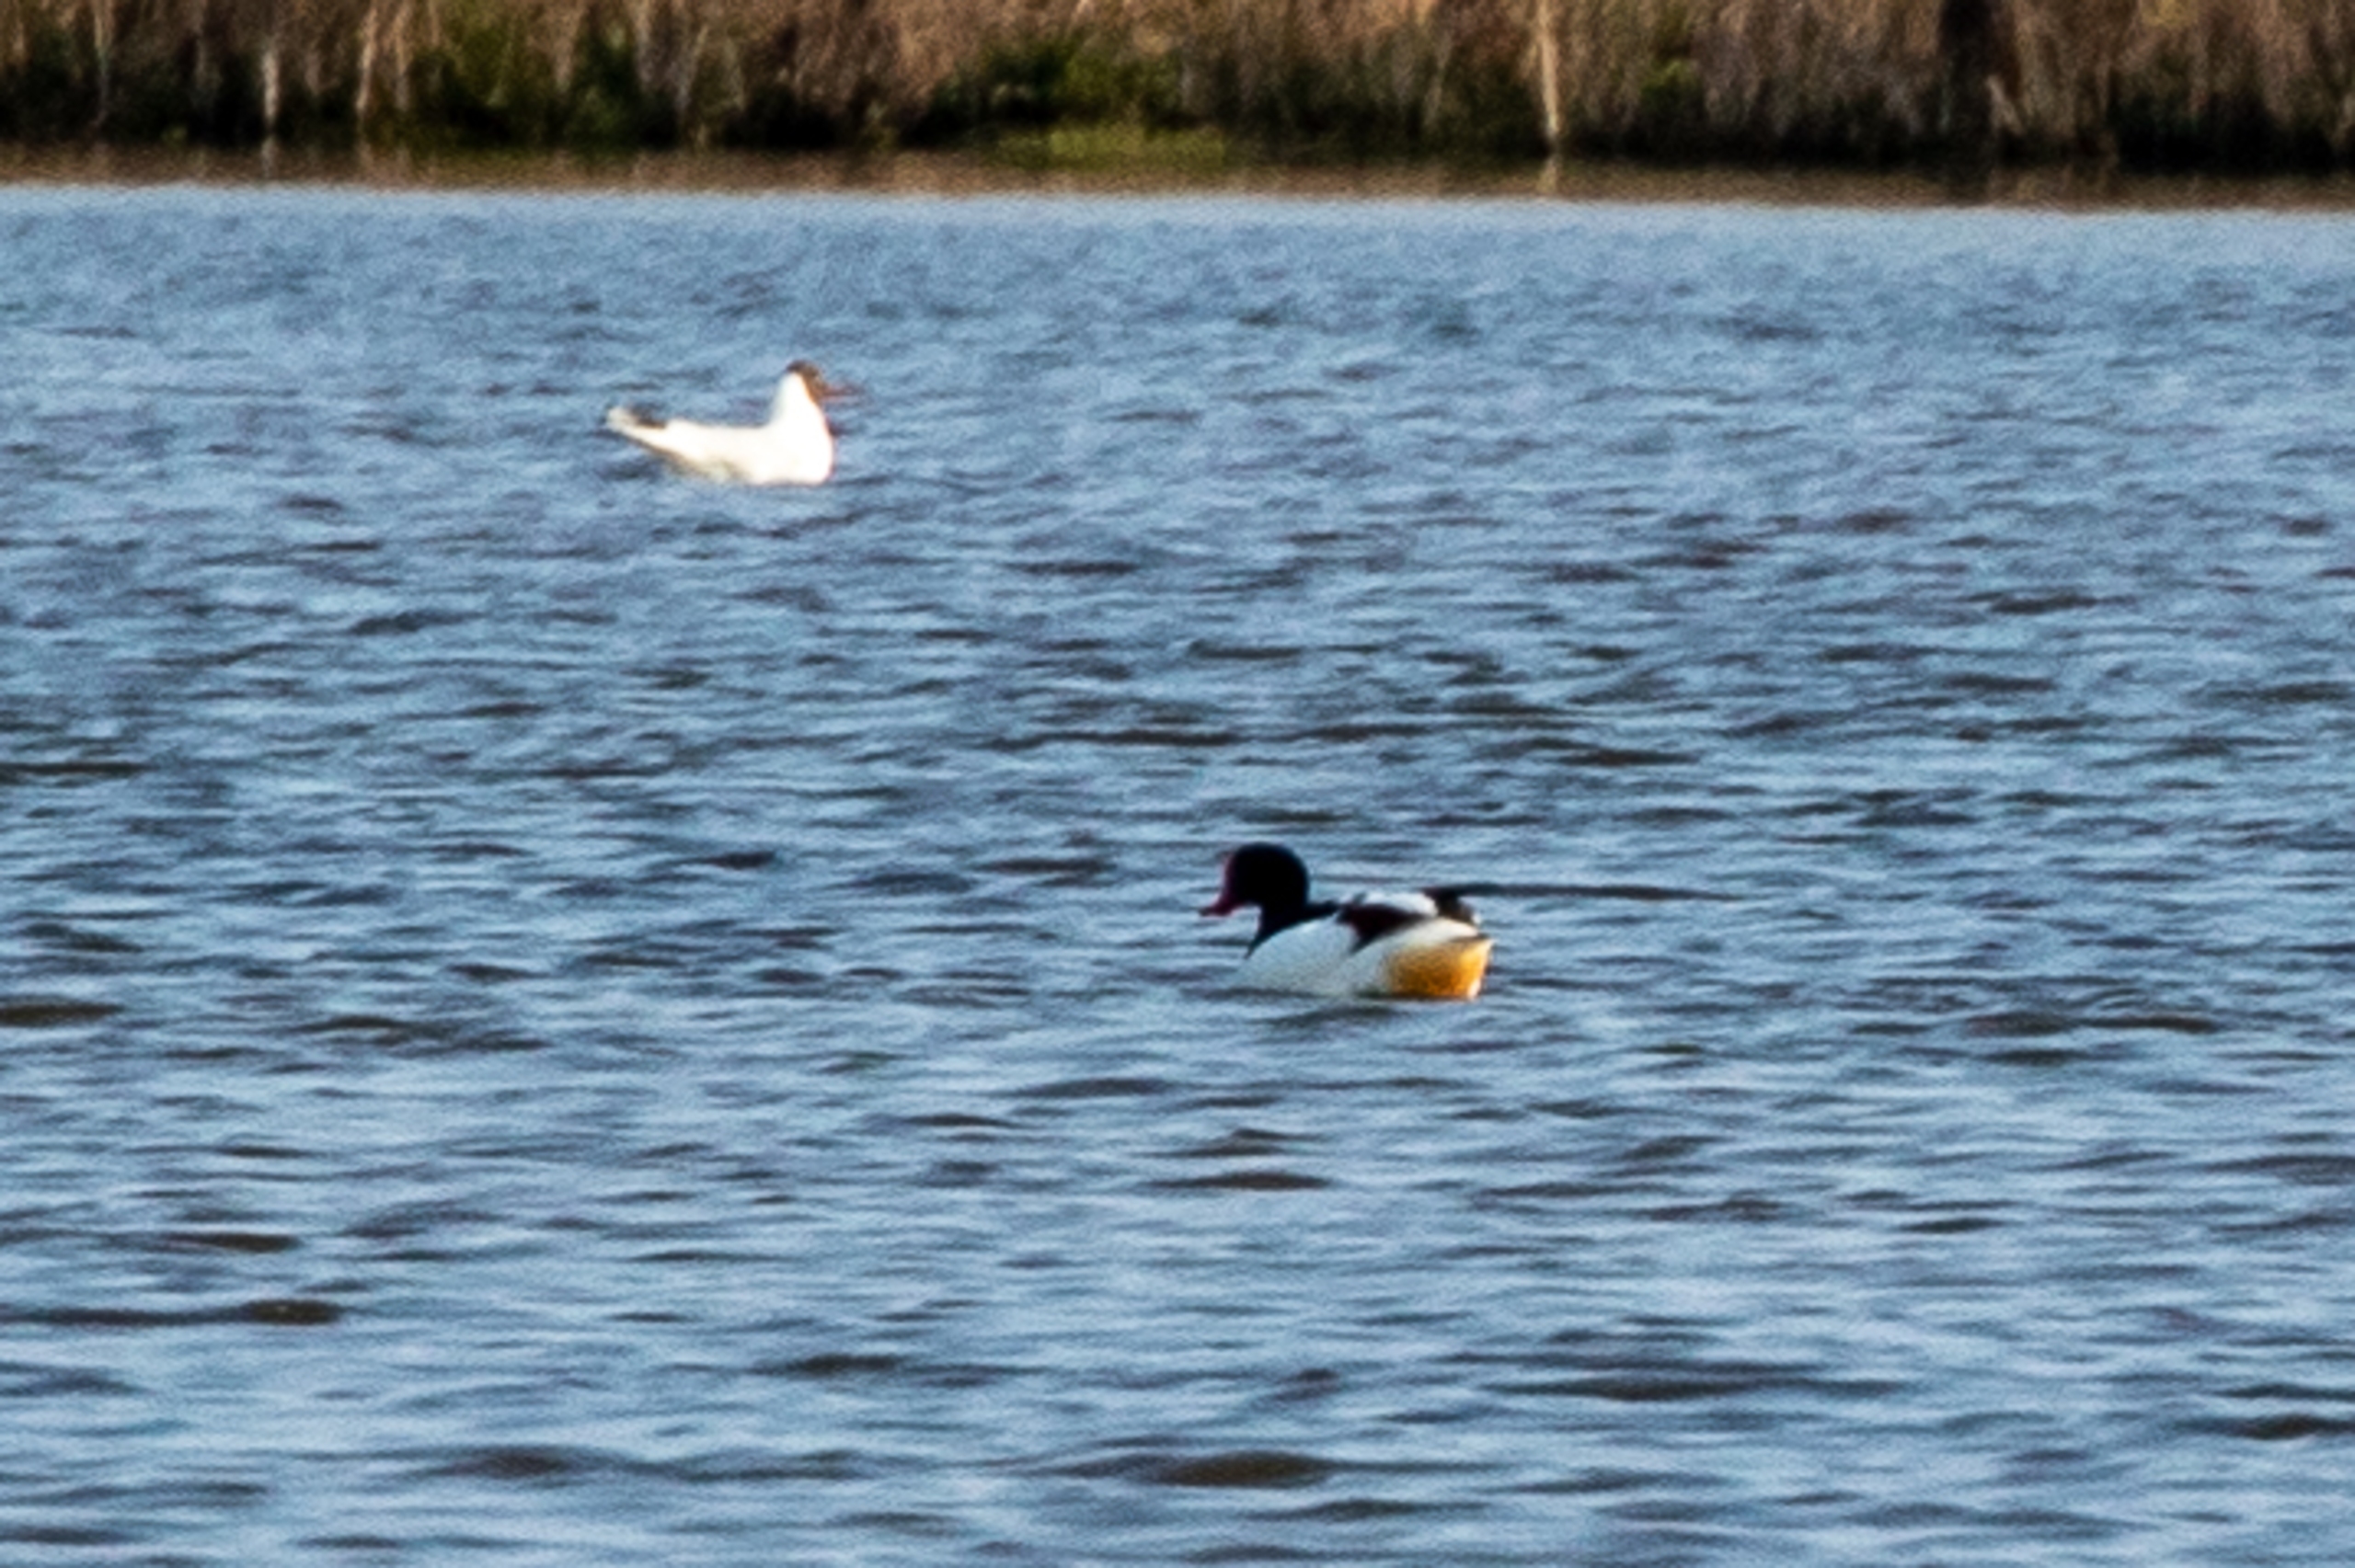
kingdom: Animalia
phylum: Chordata
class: Aves
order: Anseriformes
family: Anatidae
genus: Tadorna
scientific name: Tadorna tadorna
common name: Gravand
